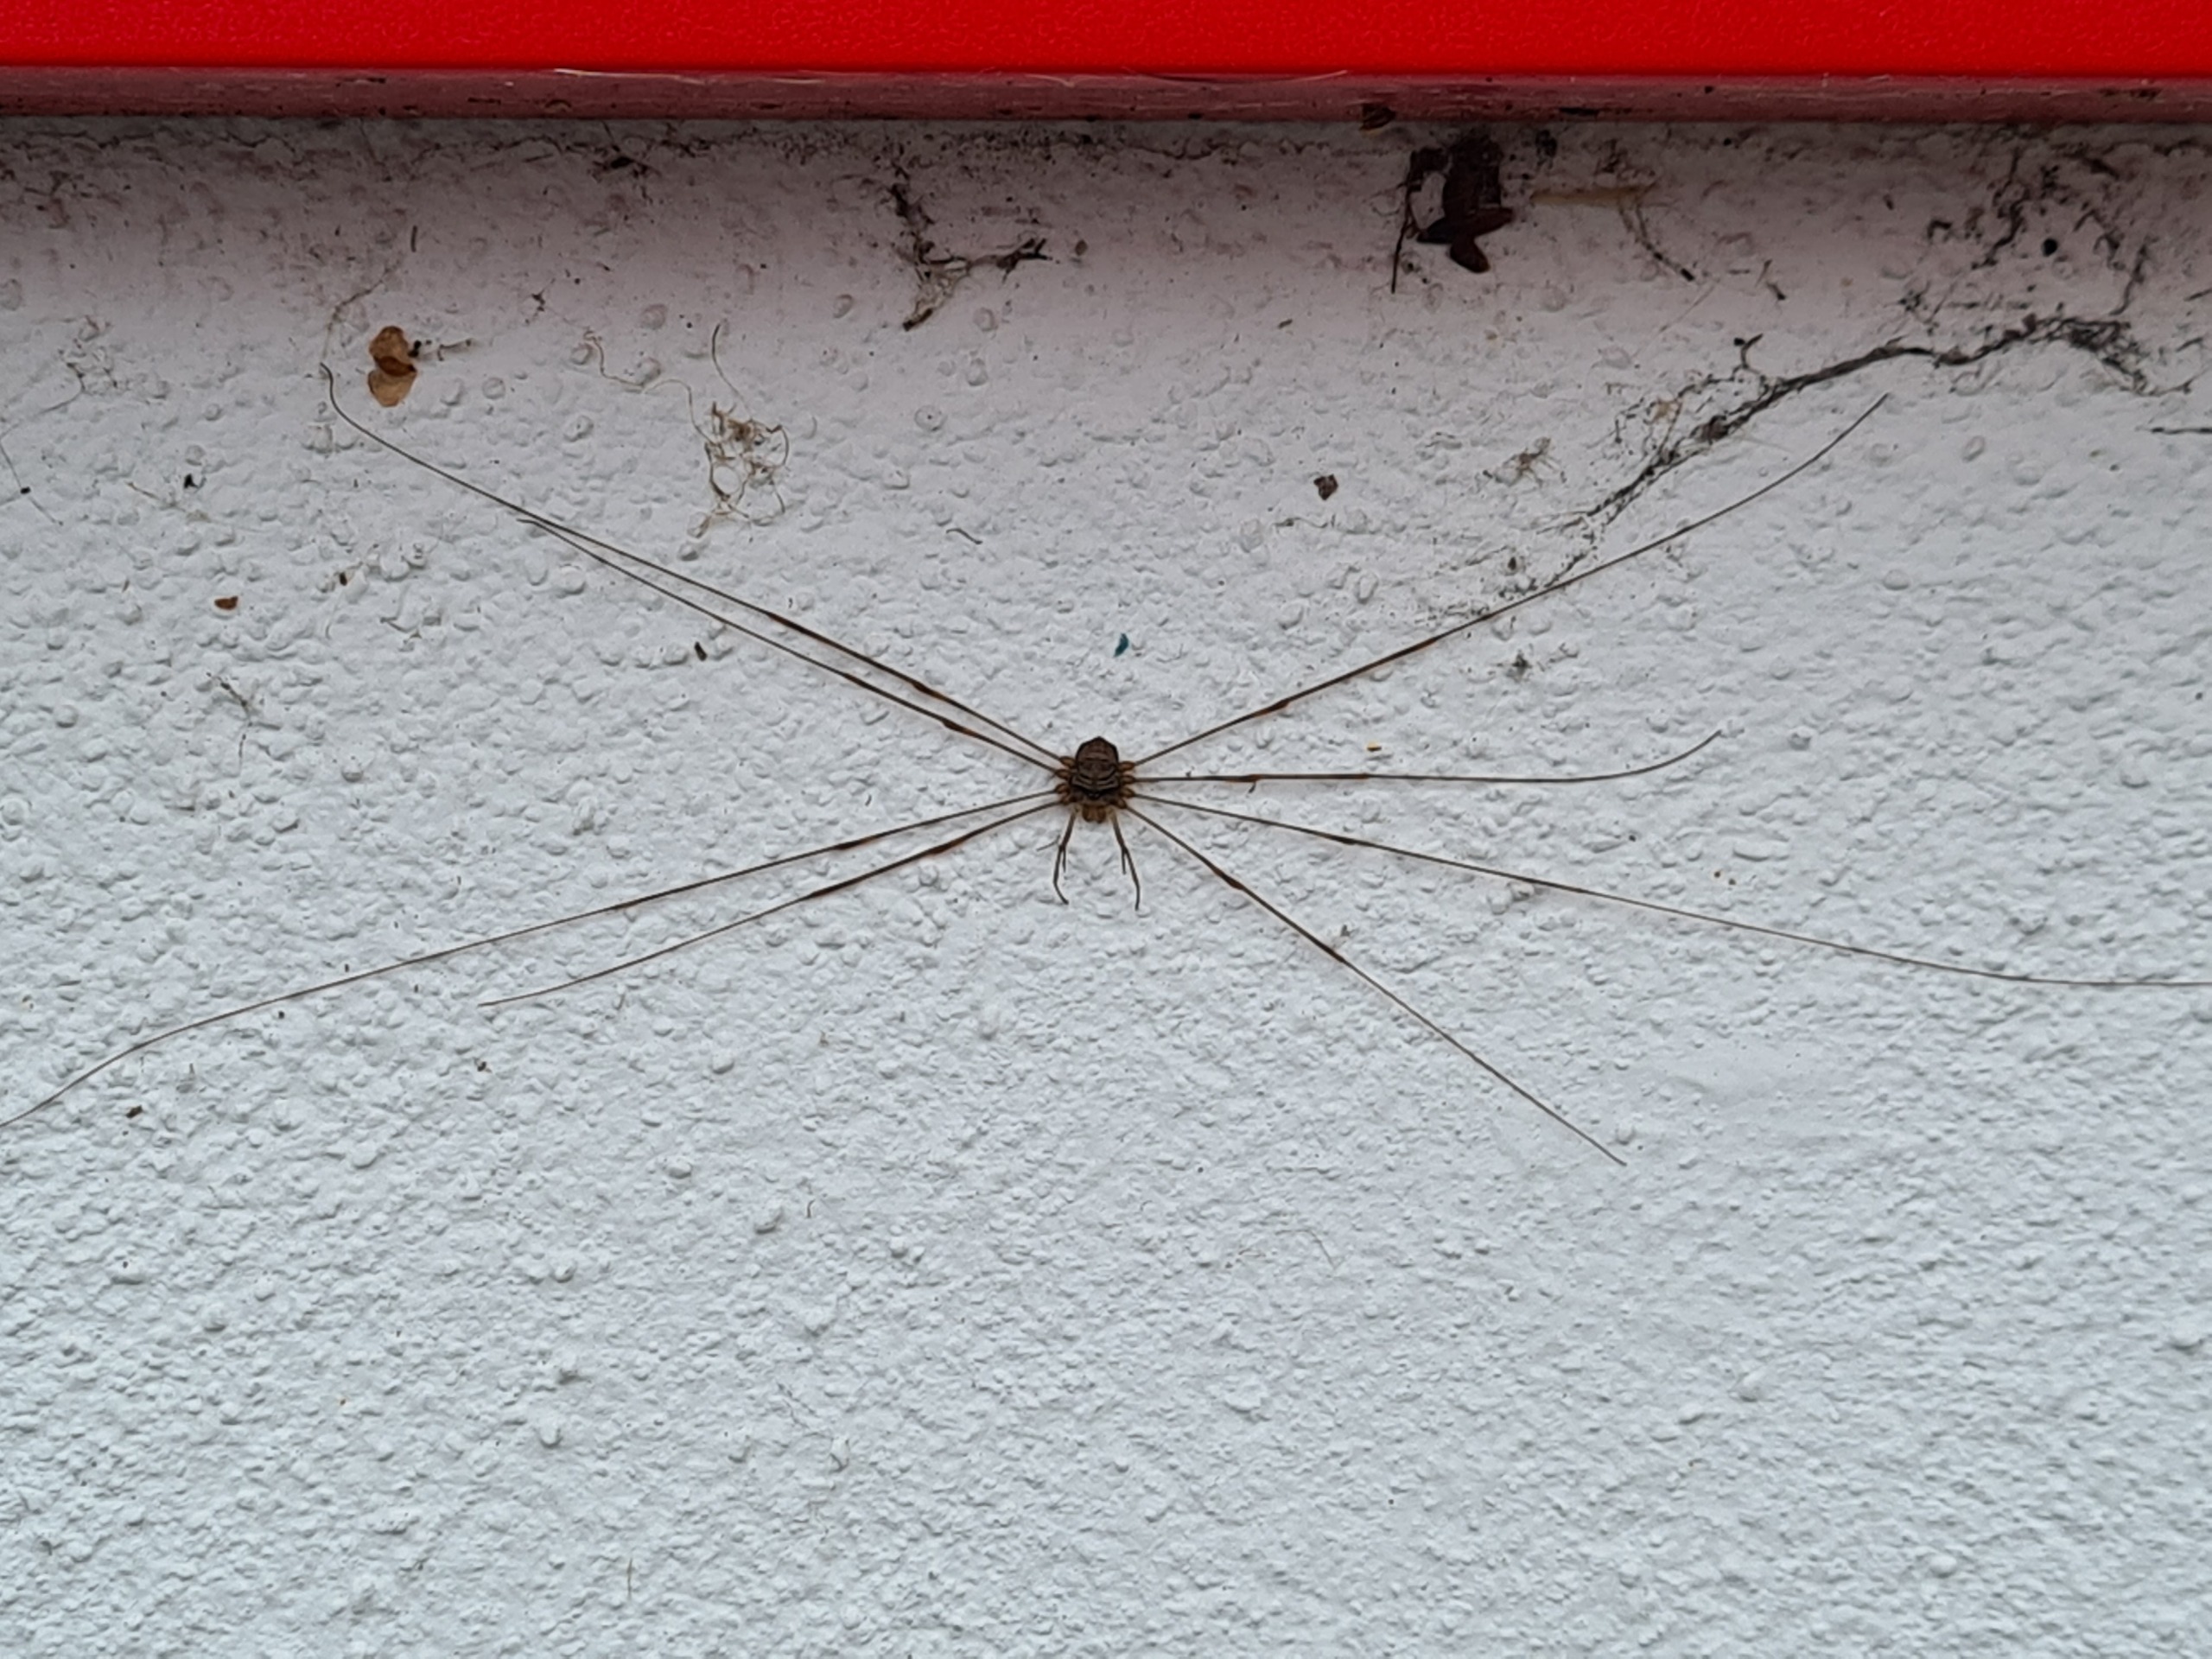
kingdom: Animalia
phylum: Arthropoda
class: Arachnida
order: Opiliones
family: Phalangiidae
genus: Dicranopalpus
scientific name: Dicranopalpus ramosus
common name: Gaffelmejer
